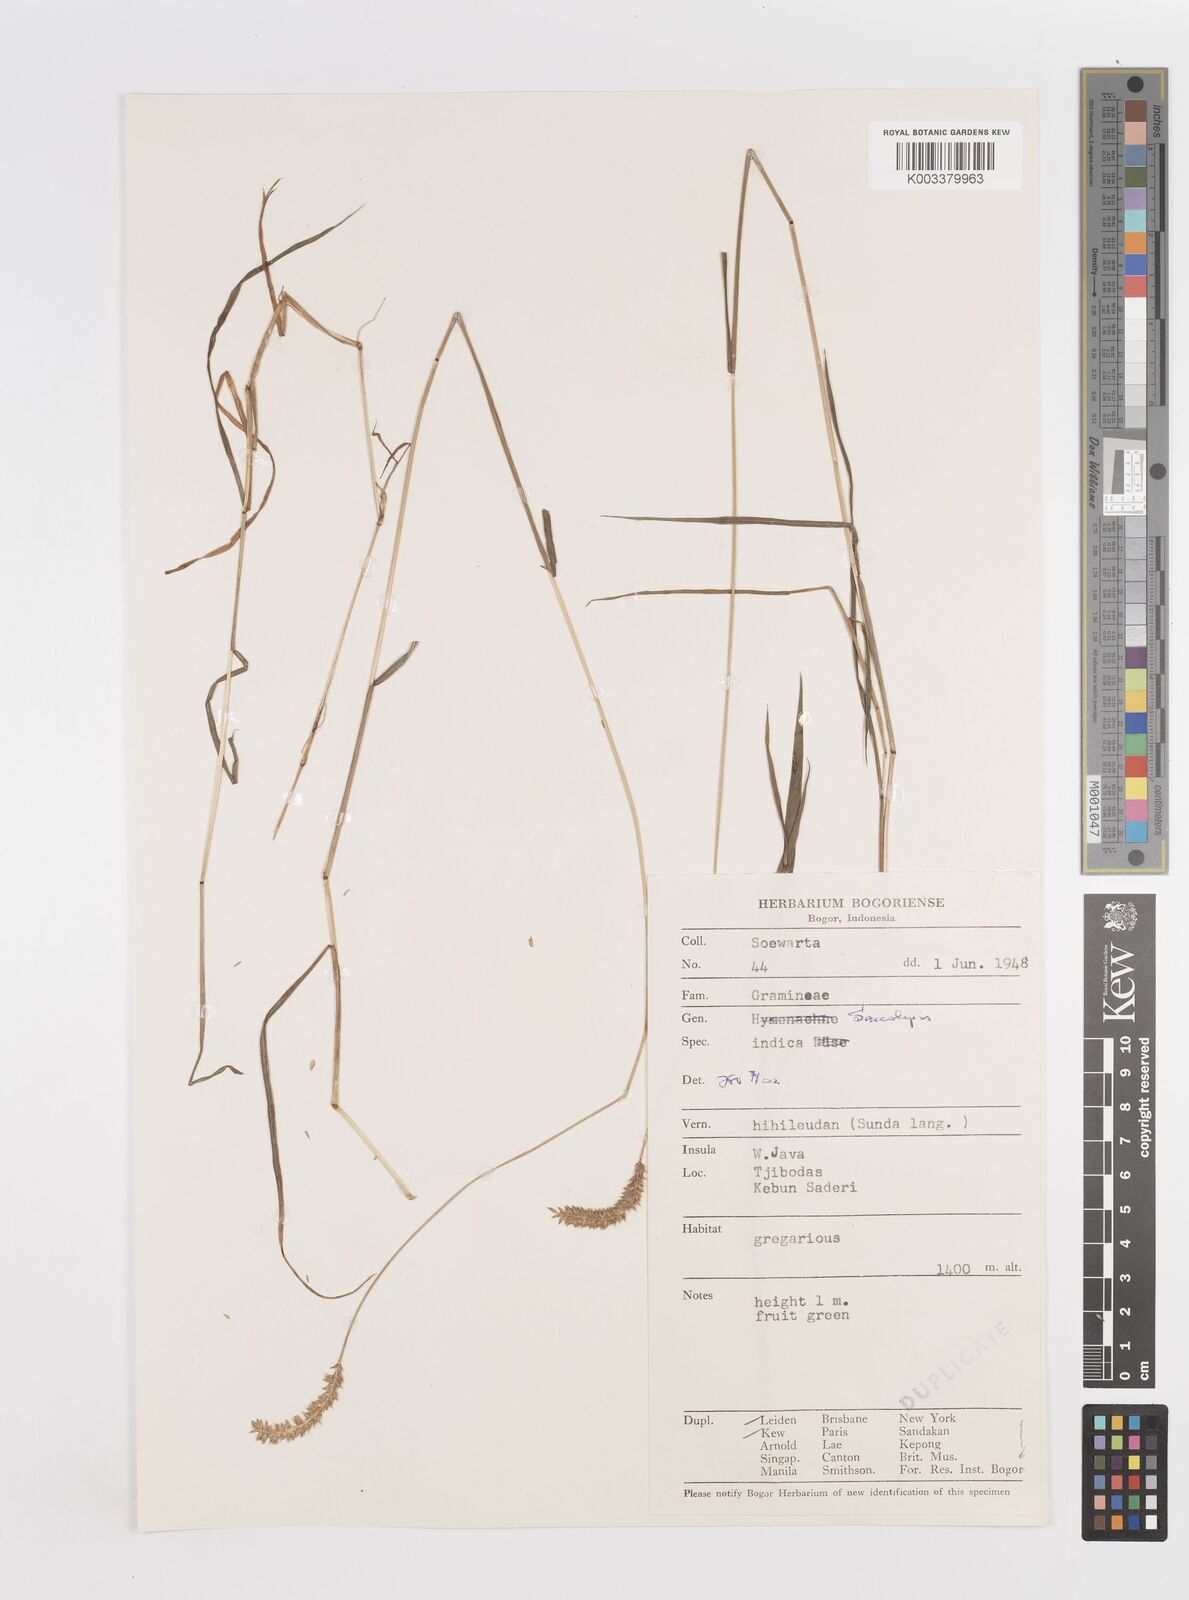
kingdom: Plantae
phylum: Tracheophyta
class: Liliopsida
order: Poales
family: Poaceae
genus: Sacciolepis
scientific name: Sacciolepis indica
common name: Glenwoodgrass
